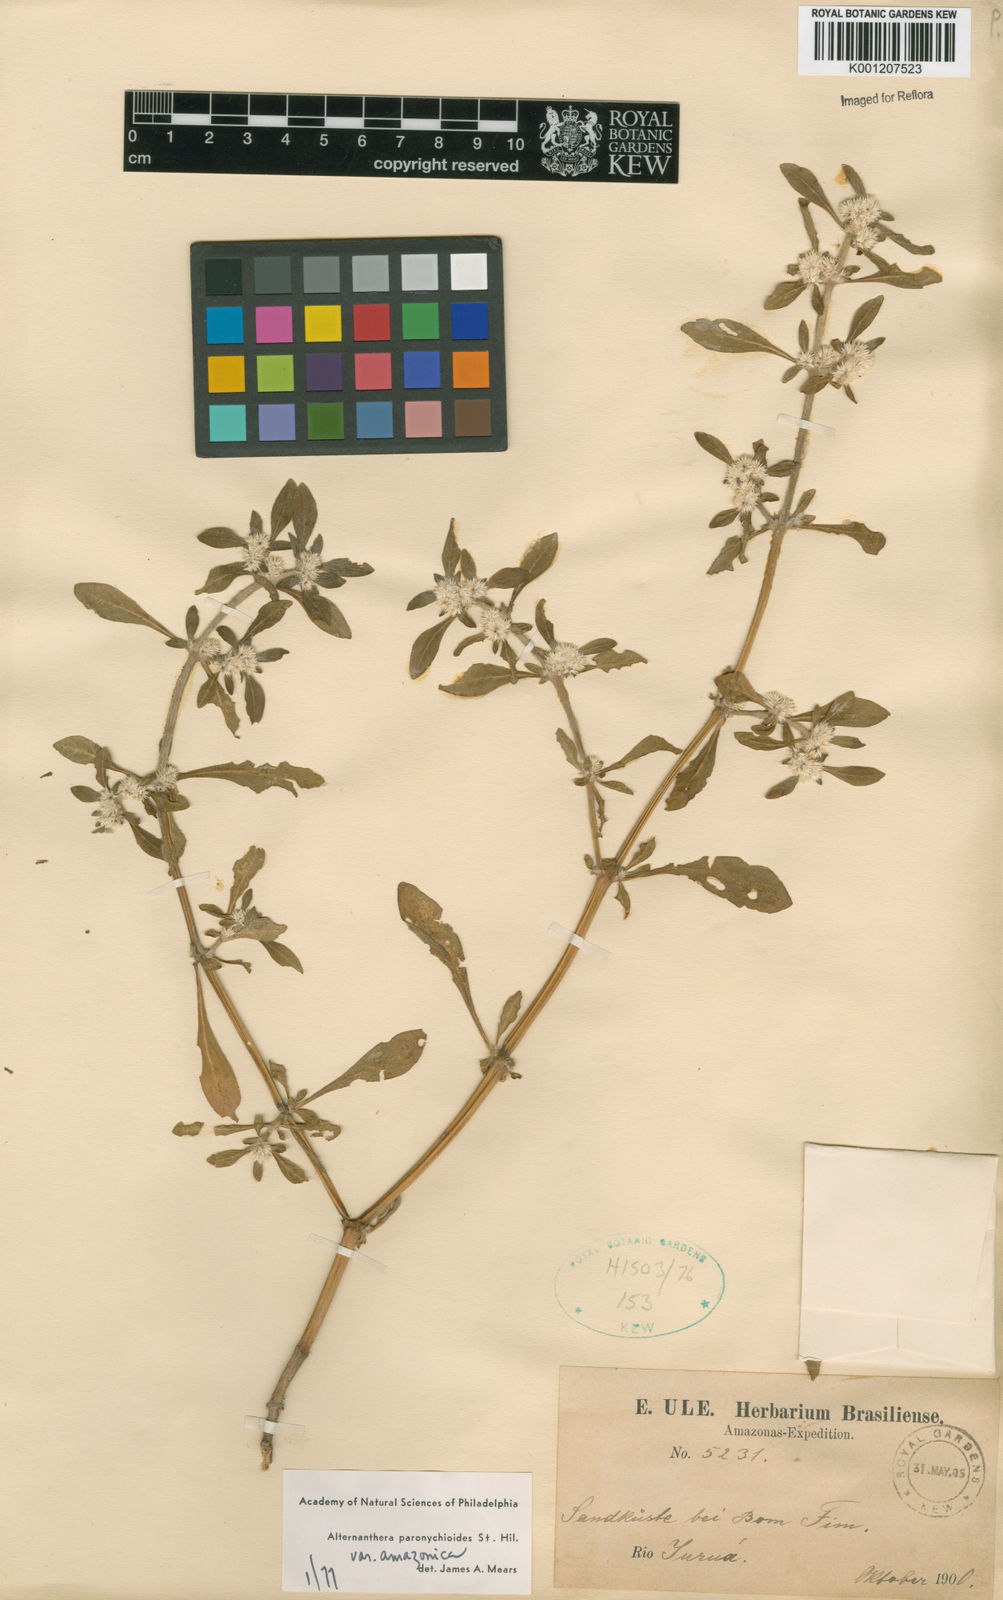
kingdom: Plantae
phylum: Tracheophyta
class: Magnoliopsida
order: Caryophyllales
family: Amaranthaceae
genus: Alternanthera
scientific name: Alternanthera paronychioides
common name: Smooth joyweed
